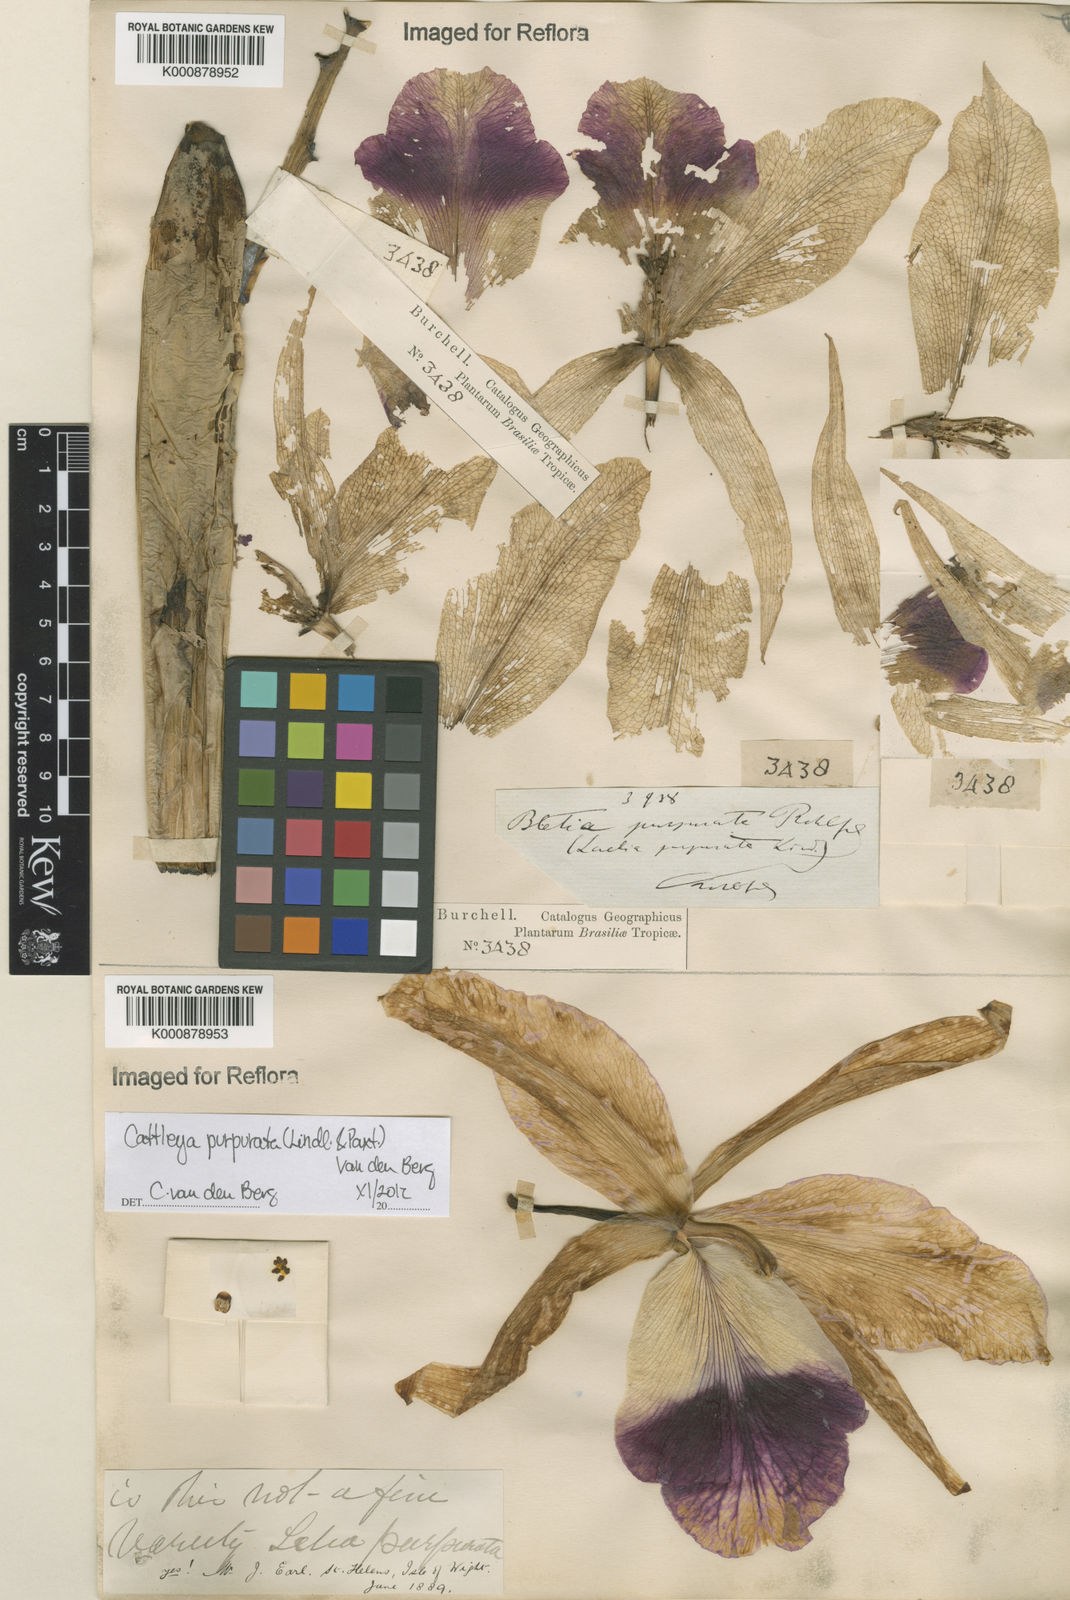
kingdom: Plantae
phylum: Tracheophyta
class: Liliopsida
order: Asparagales
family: Orchidaceae
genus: Cattleya
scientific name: Cattleya
